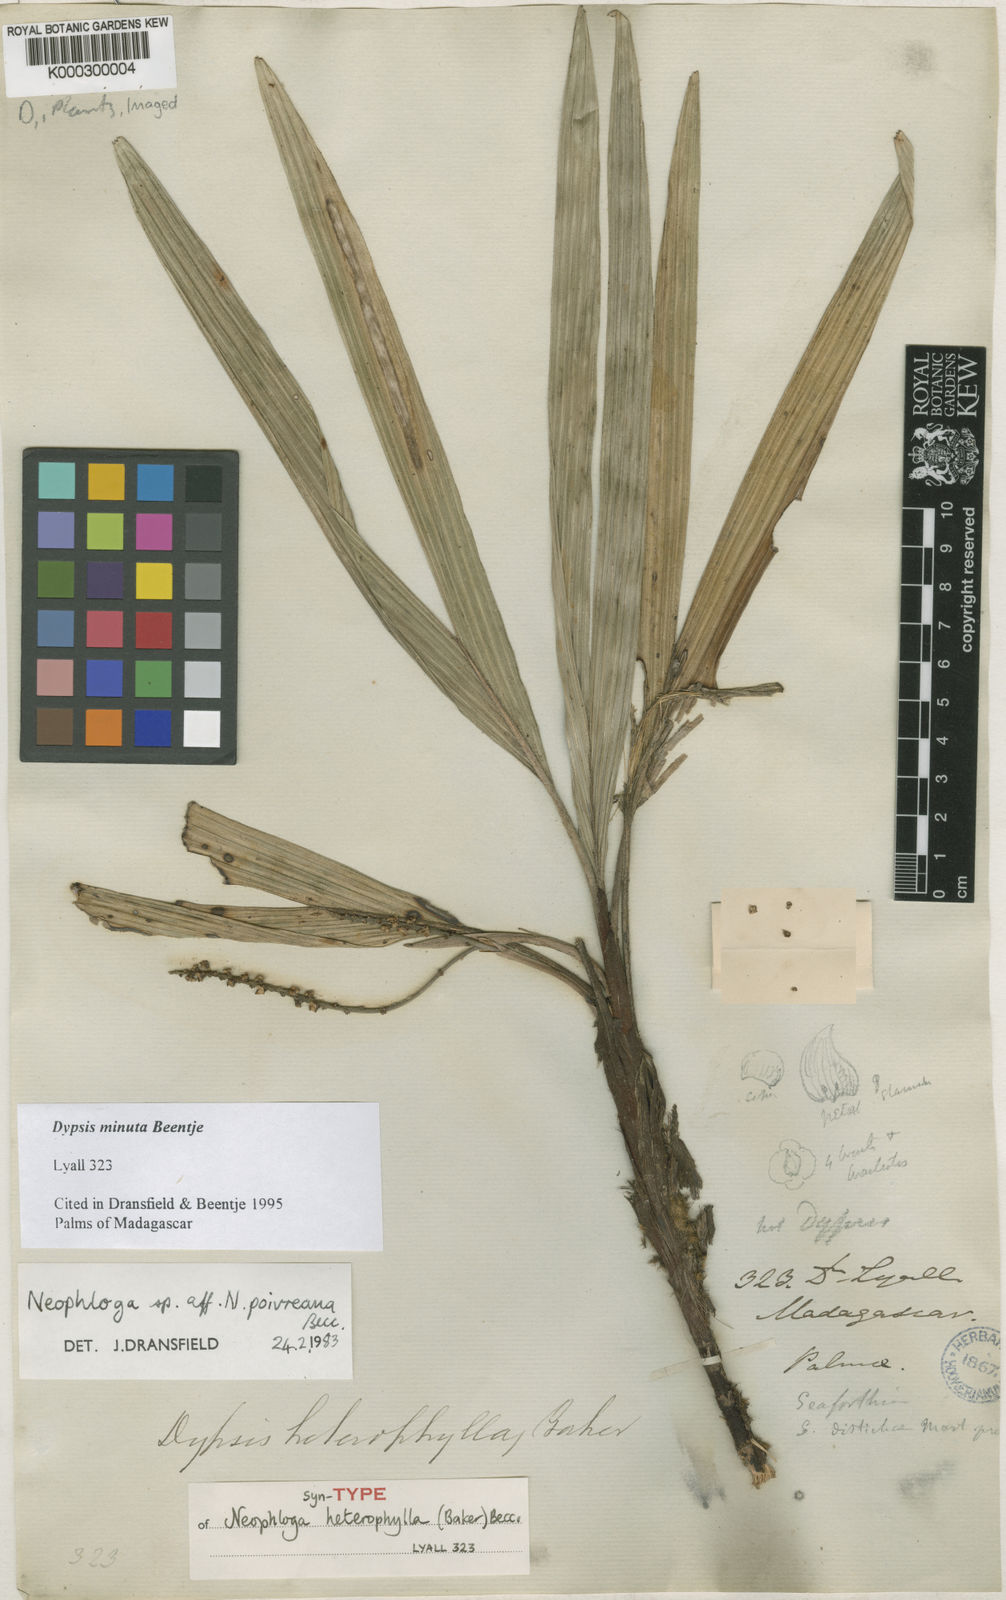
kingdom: Plantae
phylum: Tracheophyta
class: Liliopsida
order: Arecales
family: Arecaceae
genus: Dypsis
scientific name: Dypsis minuta
